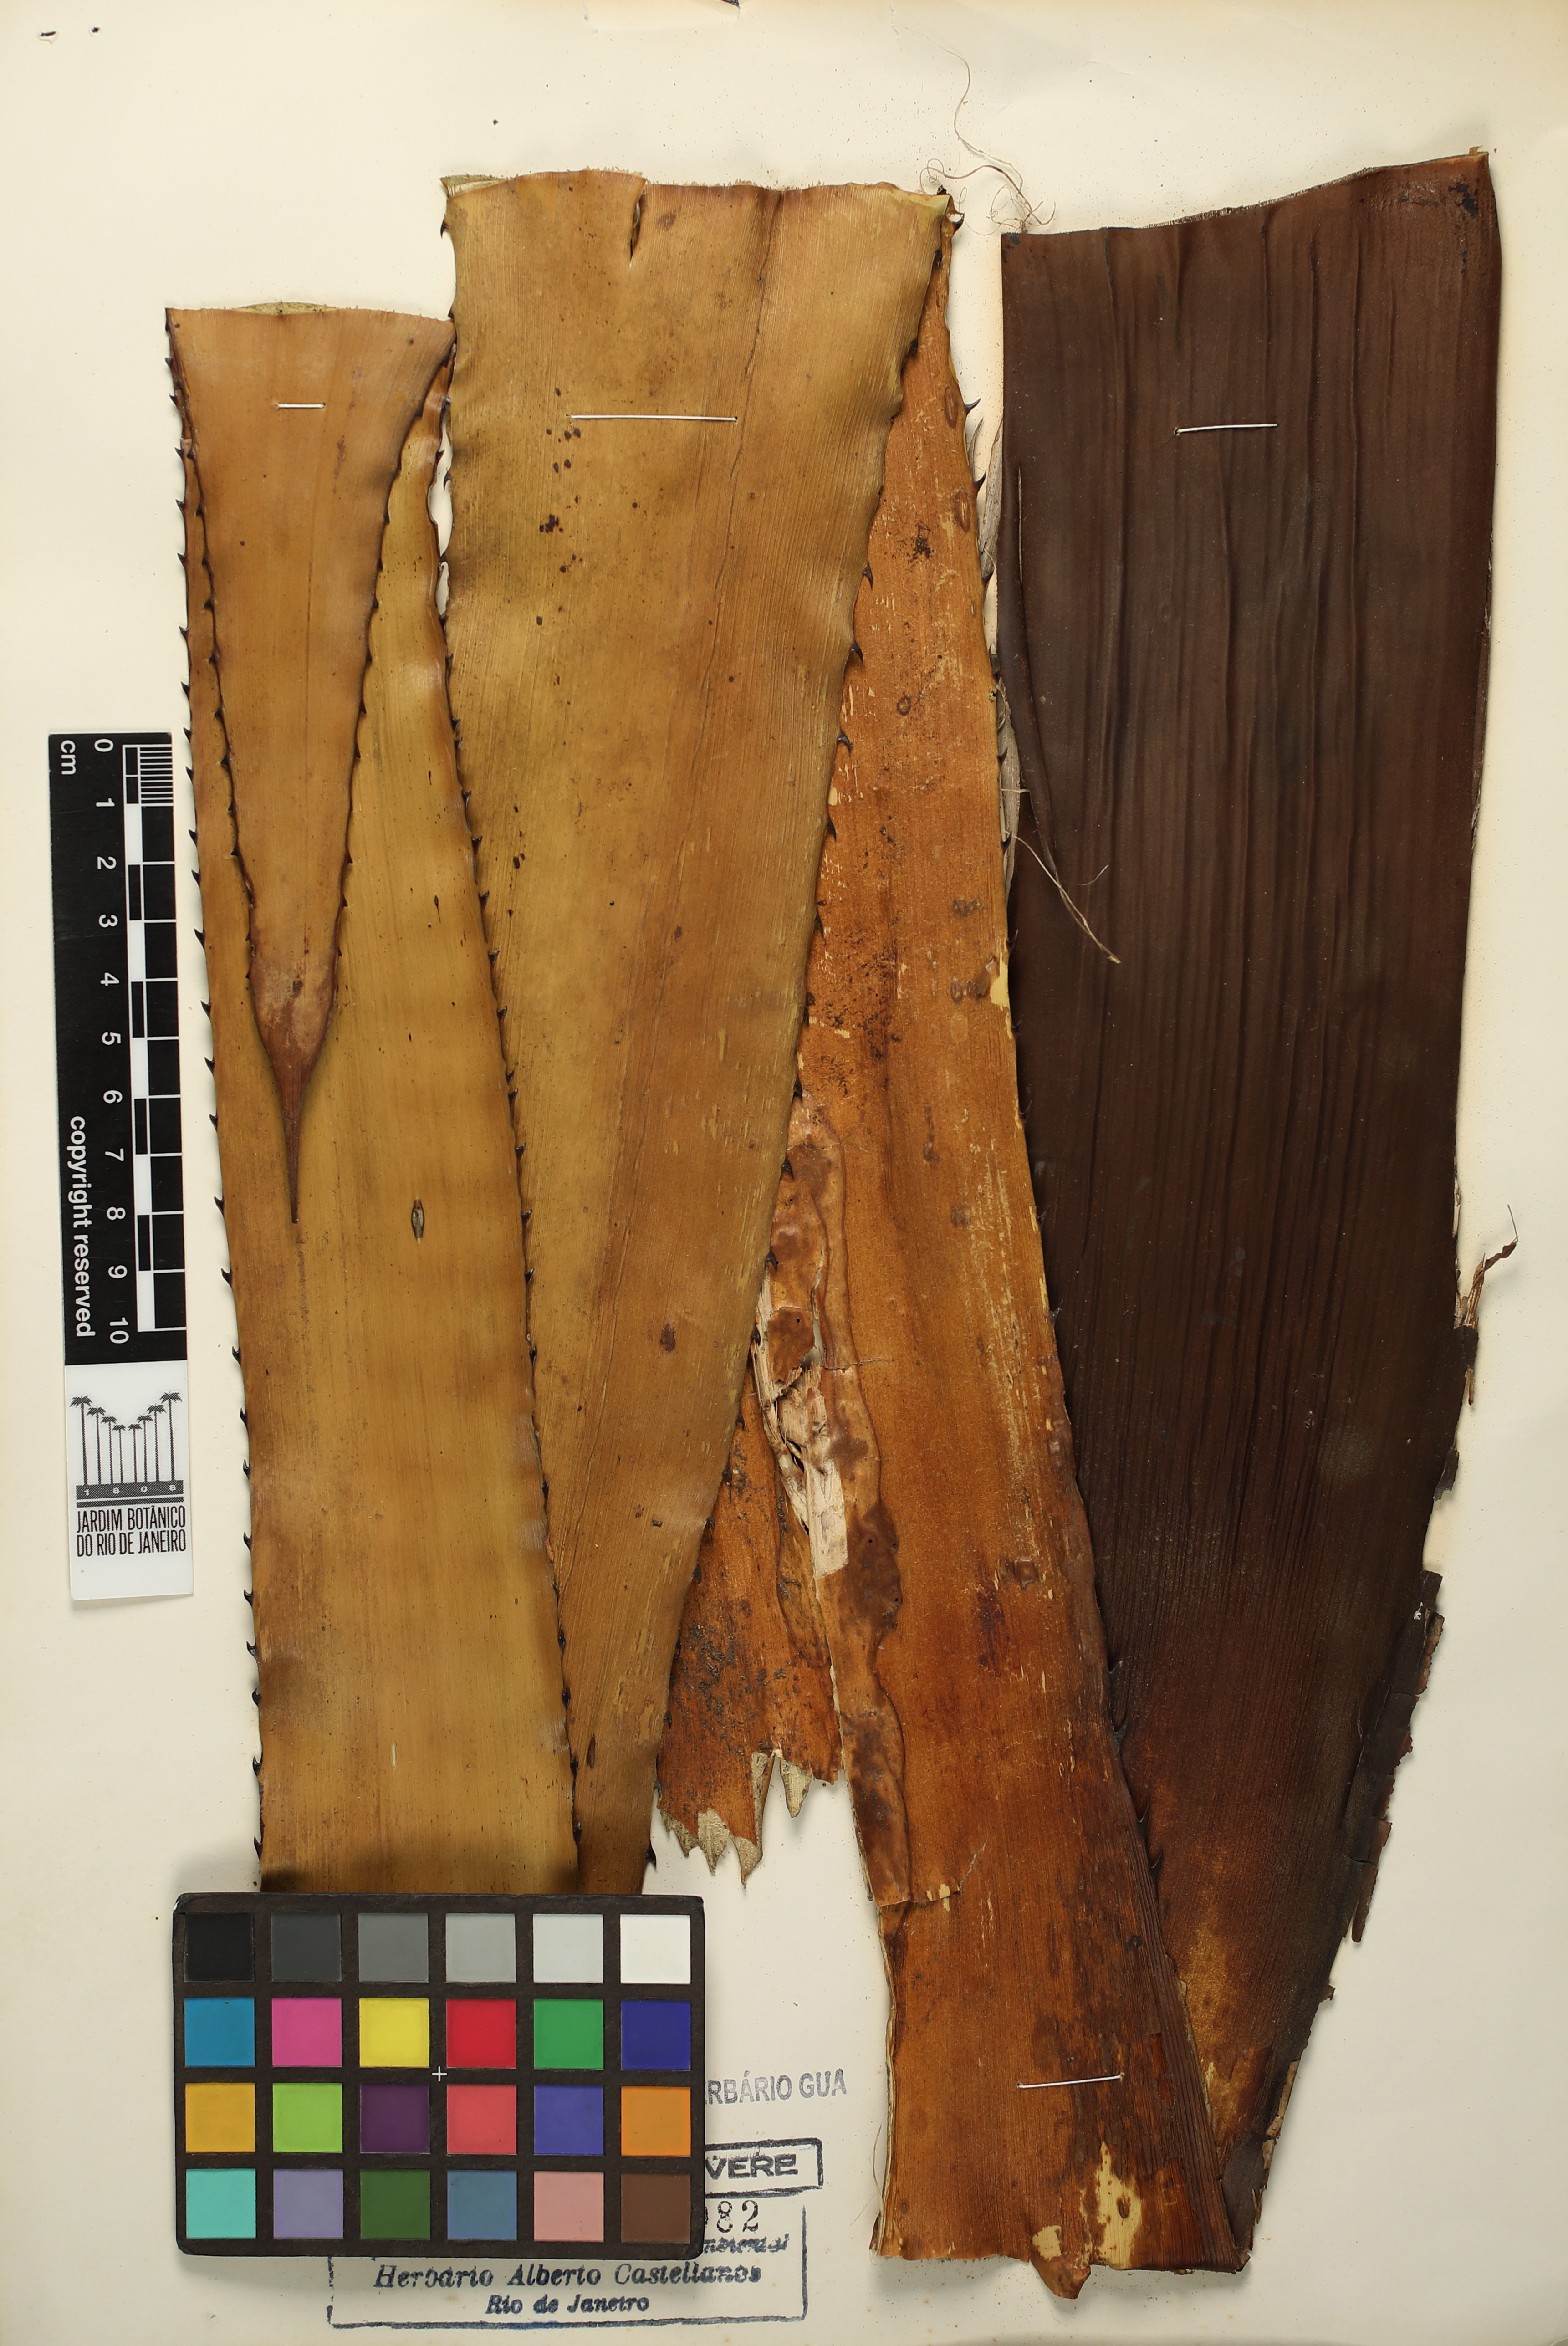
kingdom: Plantae
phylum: Tracheophyta
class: Liliopsida
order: Poales
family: Bromeliaceae
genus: Aechmea
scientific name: Aechmea sphaerocephala
